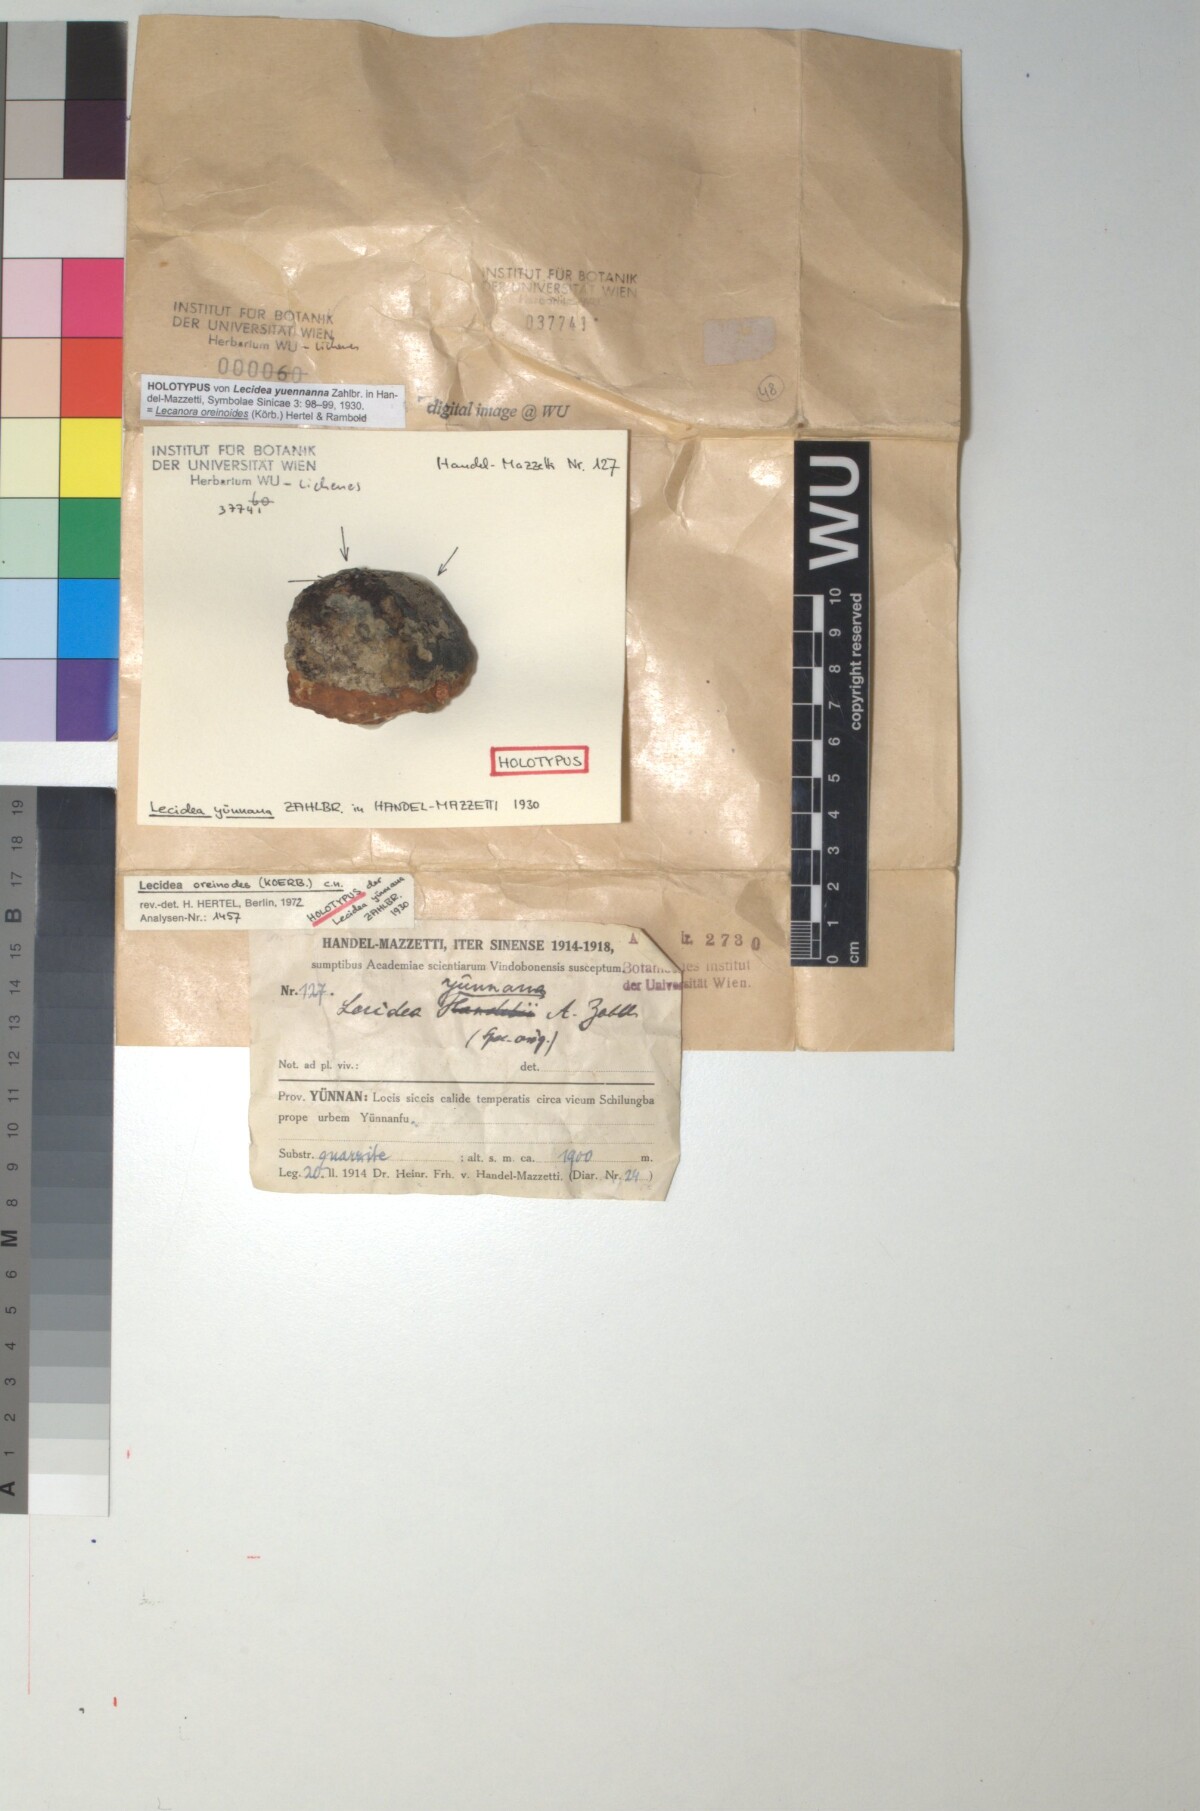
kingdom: Fungi
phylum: Ascomycota
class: Lecanoromycetes
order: Lecideales
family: Lecideaceae
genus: Lecidea
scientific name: Lecidea
